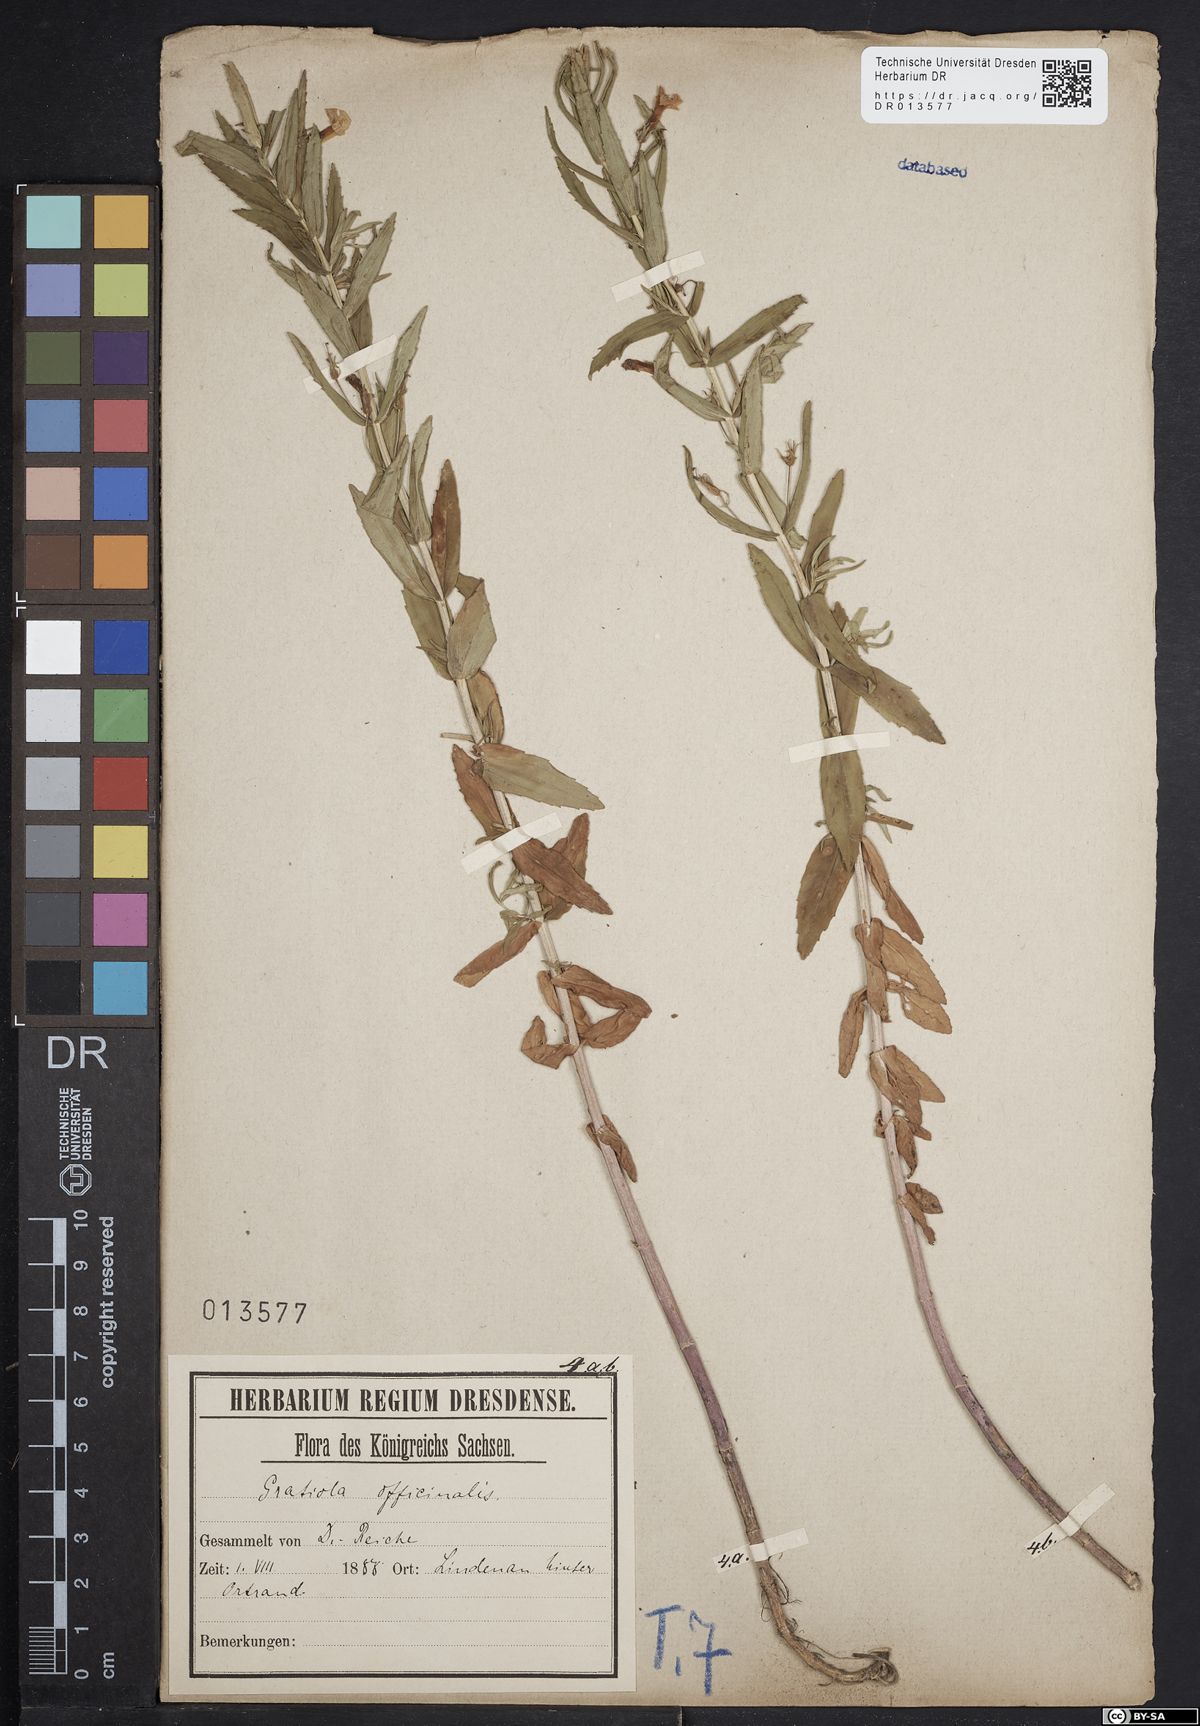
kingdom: Plantae
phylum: Tracheophyta
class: Magnoliopsida
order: Lamiales
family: Plantaginaceae
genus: Gratiola
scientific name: Gratiola officinalis
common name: Gratiola
